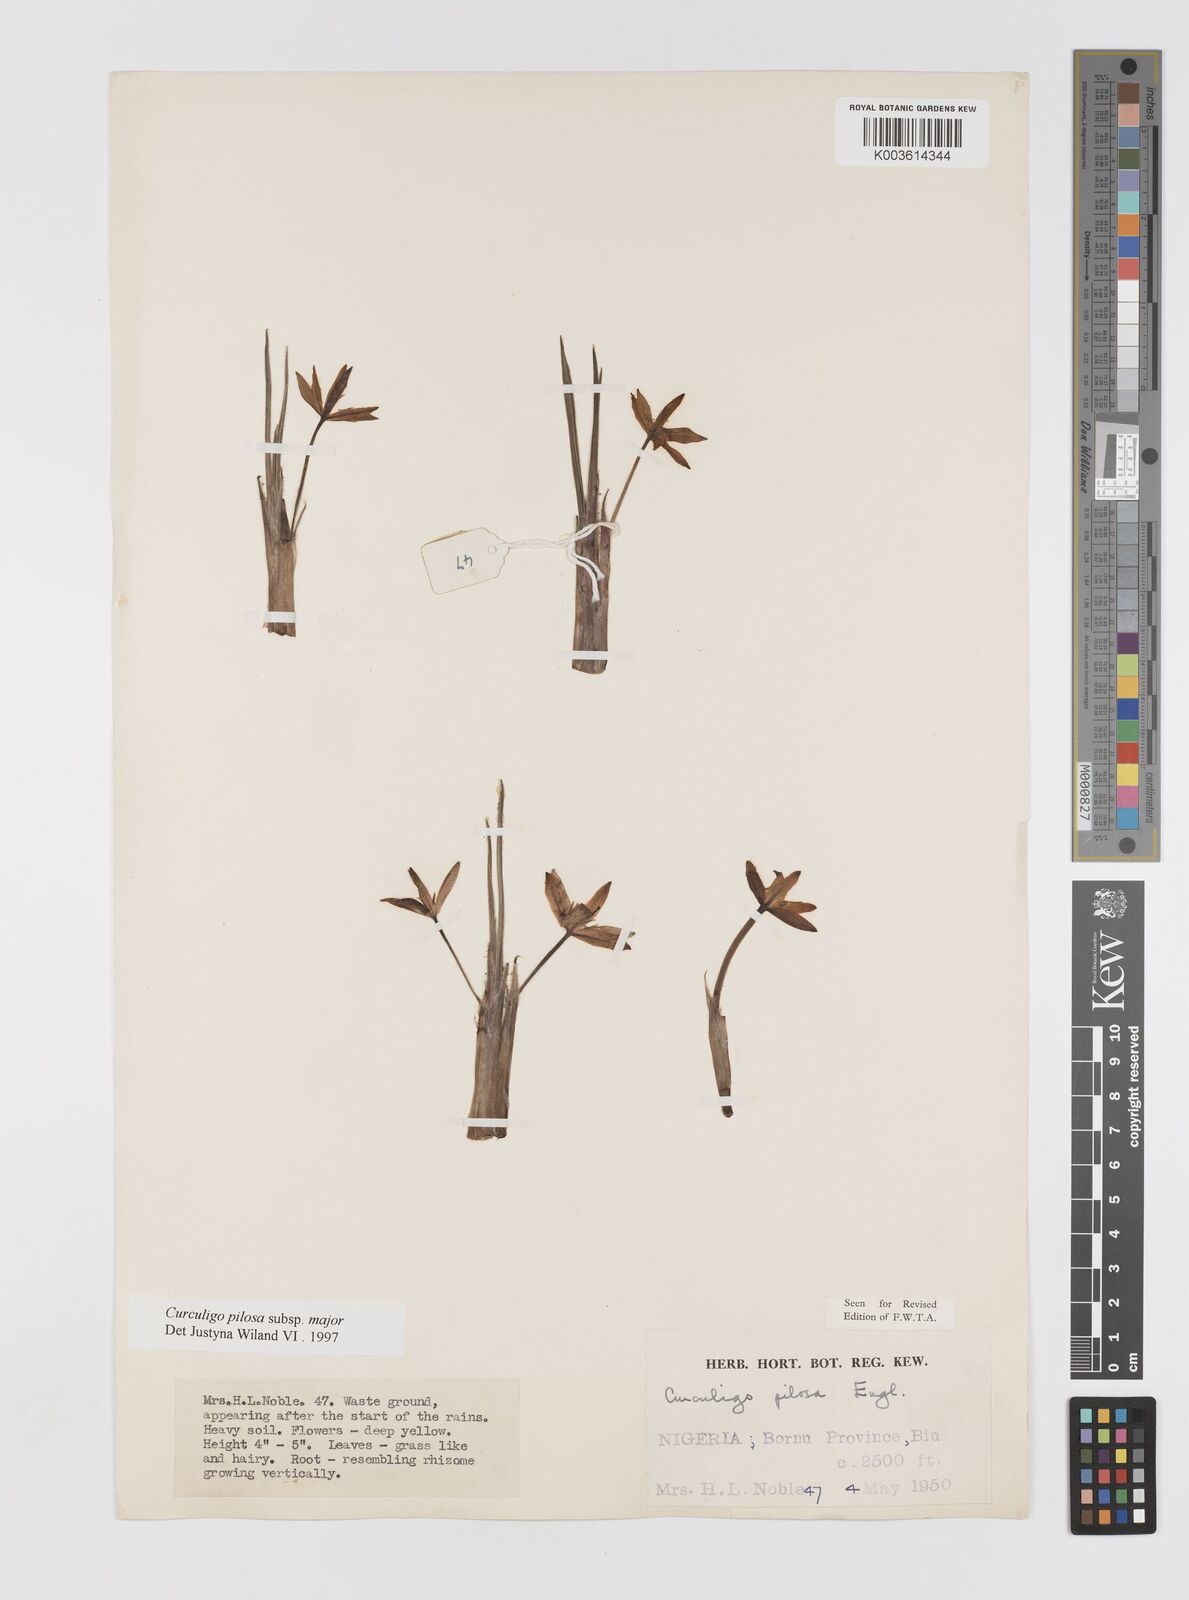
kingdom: Plantae
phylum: Tracheophyta
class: Liliopsida
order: Asparagales
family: Hypoxidaceae
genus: Curculigo
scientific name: Curculigo pilosa
